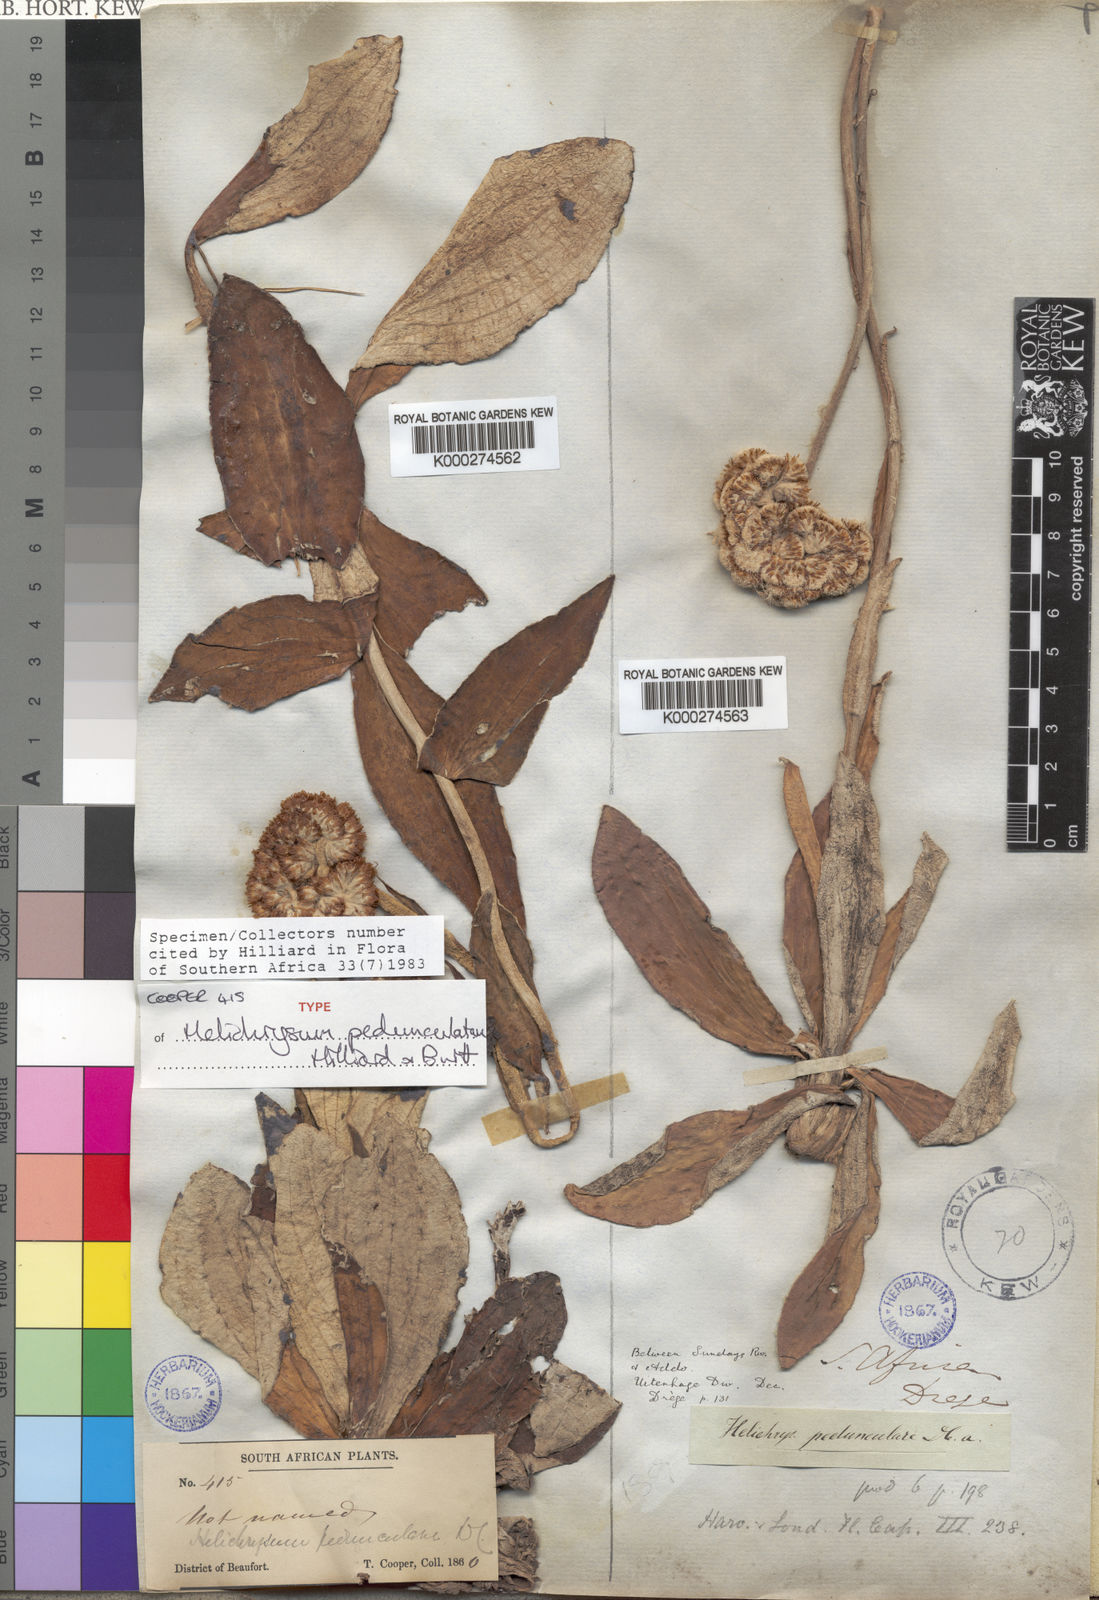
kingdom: Plantae
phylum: Tracheophyta
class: Magnoliopsida
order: Asterales
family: Asteraceae
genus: Helichrysum
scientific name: Helichrysum pedunculatum
